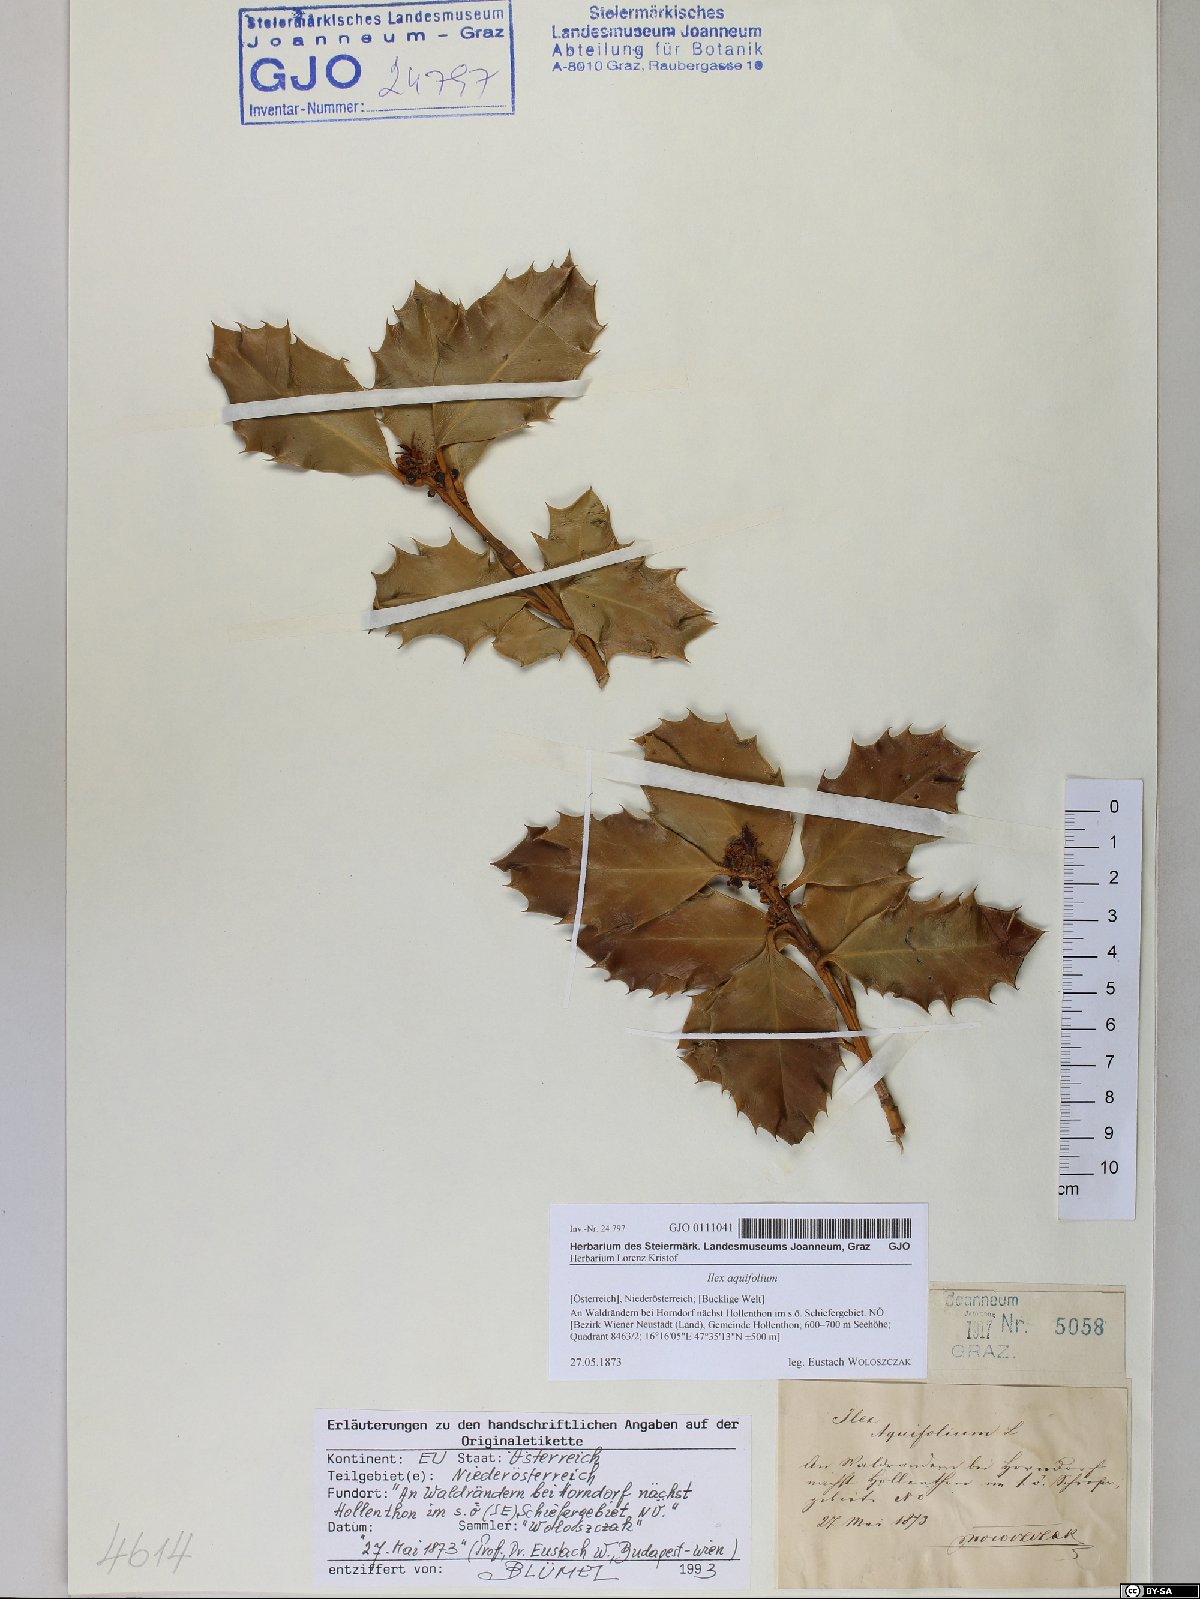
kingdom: Plantae
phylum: Tracheophyta
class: Magnoliopsida
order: Aquifoliales
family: Aquifoliaceae
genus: Ilex
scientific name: Ilex aquifolium
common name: English holly
